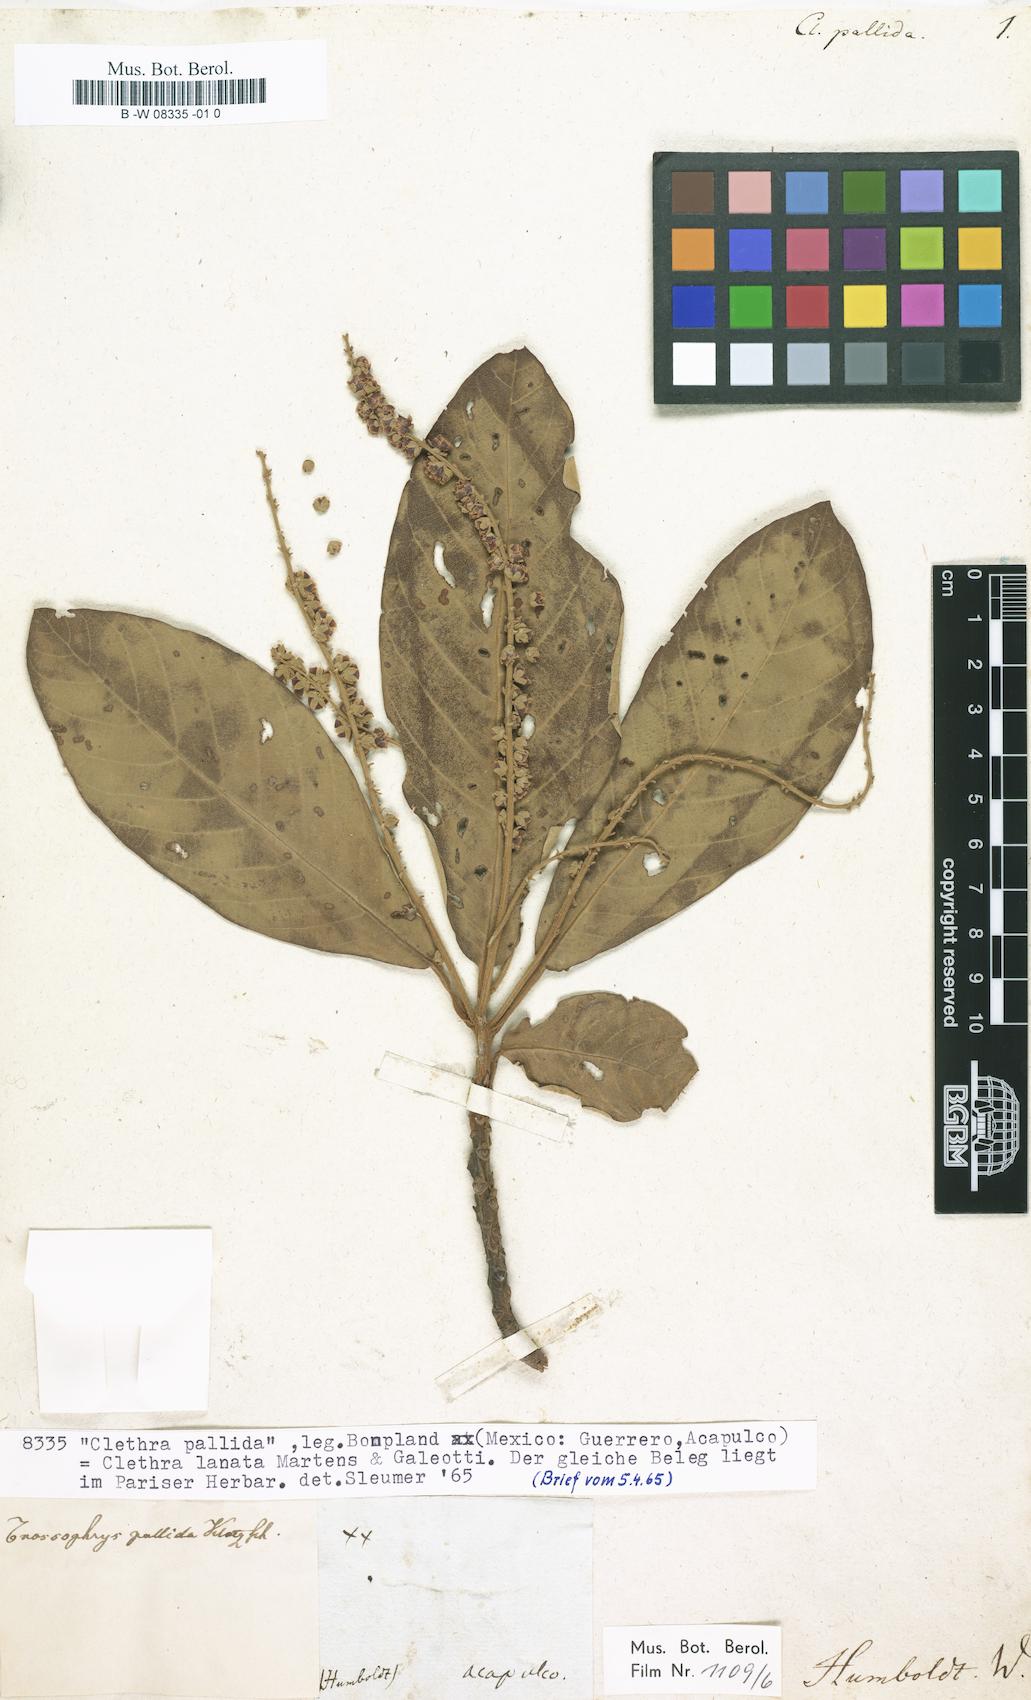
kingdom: Plantae
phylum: Tracheophyta
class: Magnoliopsida
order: Ericales
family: Clethraceae
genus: Clethra
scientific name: Clethra
